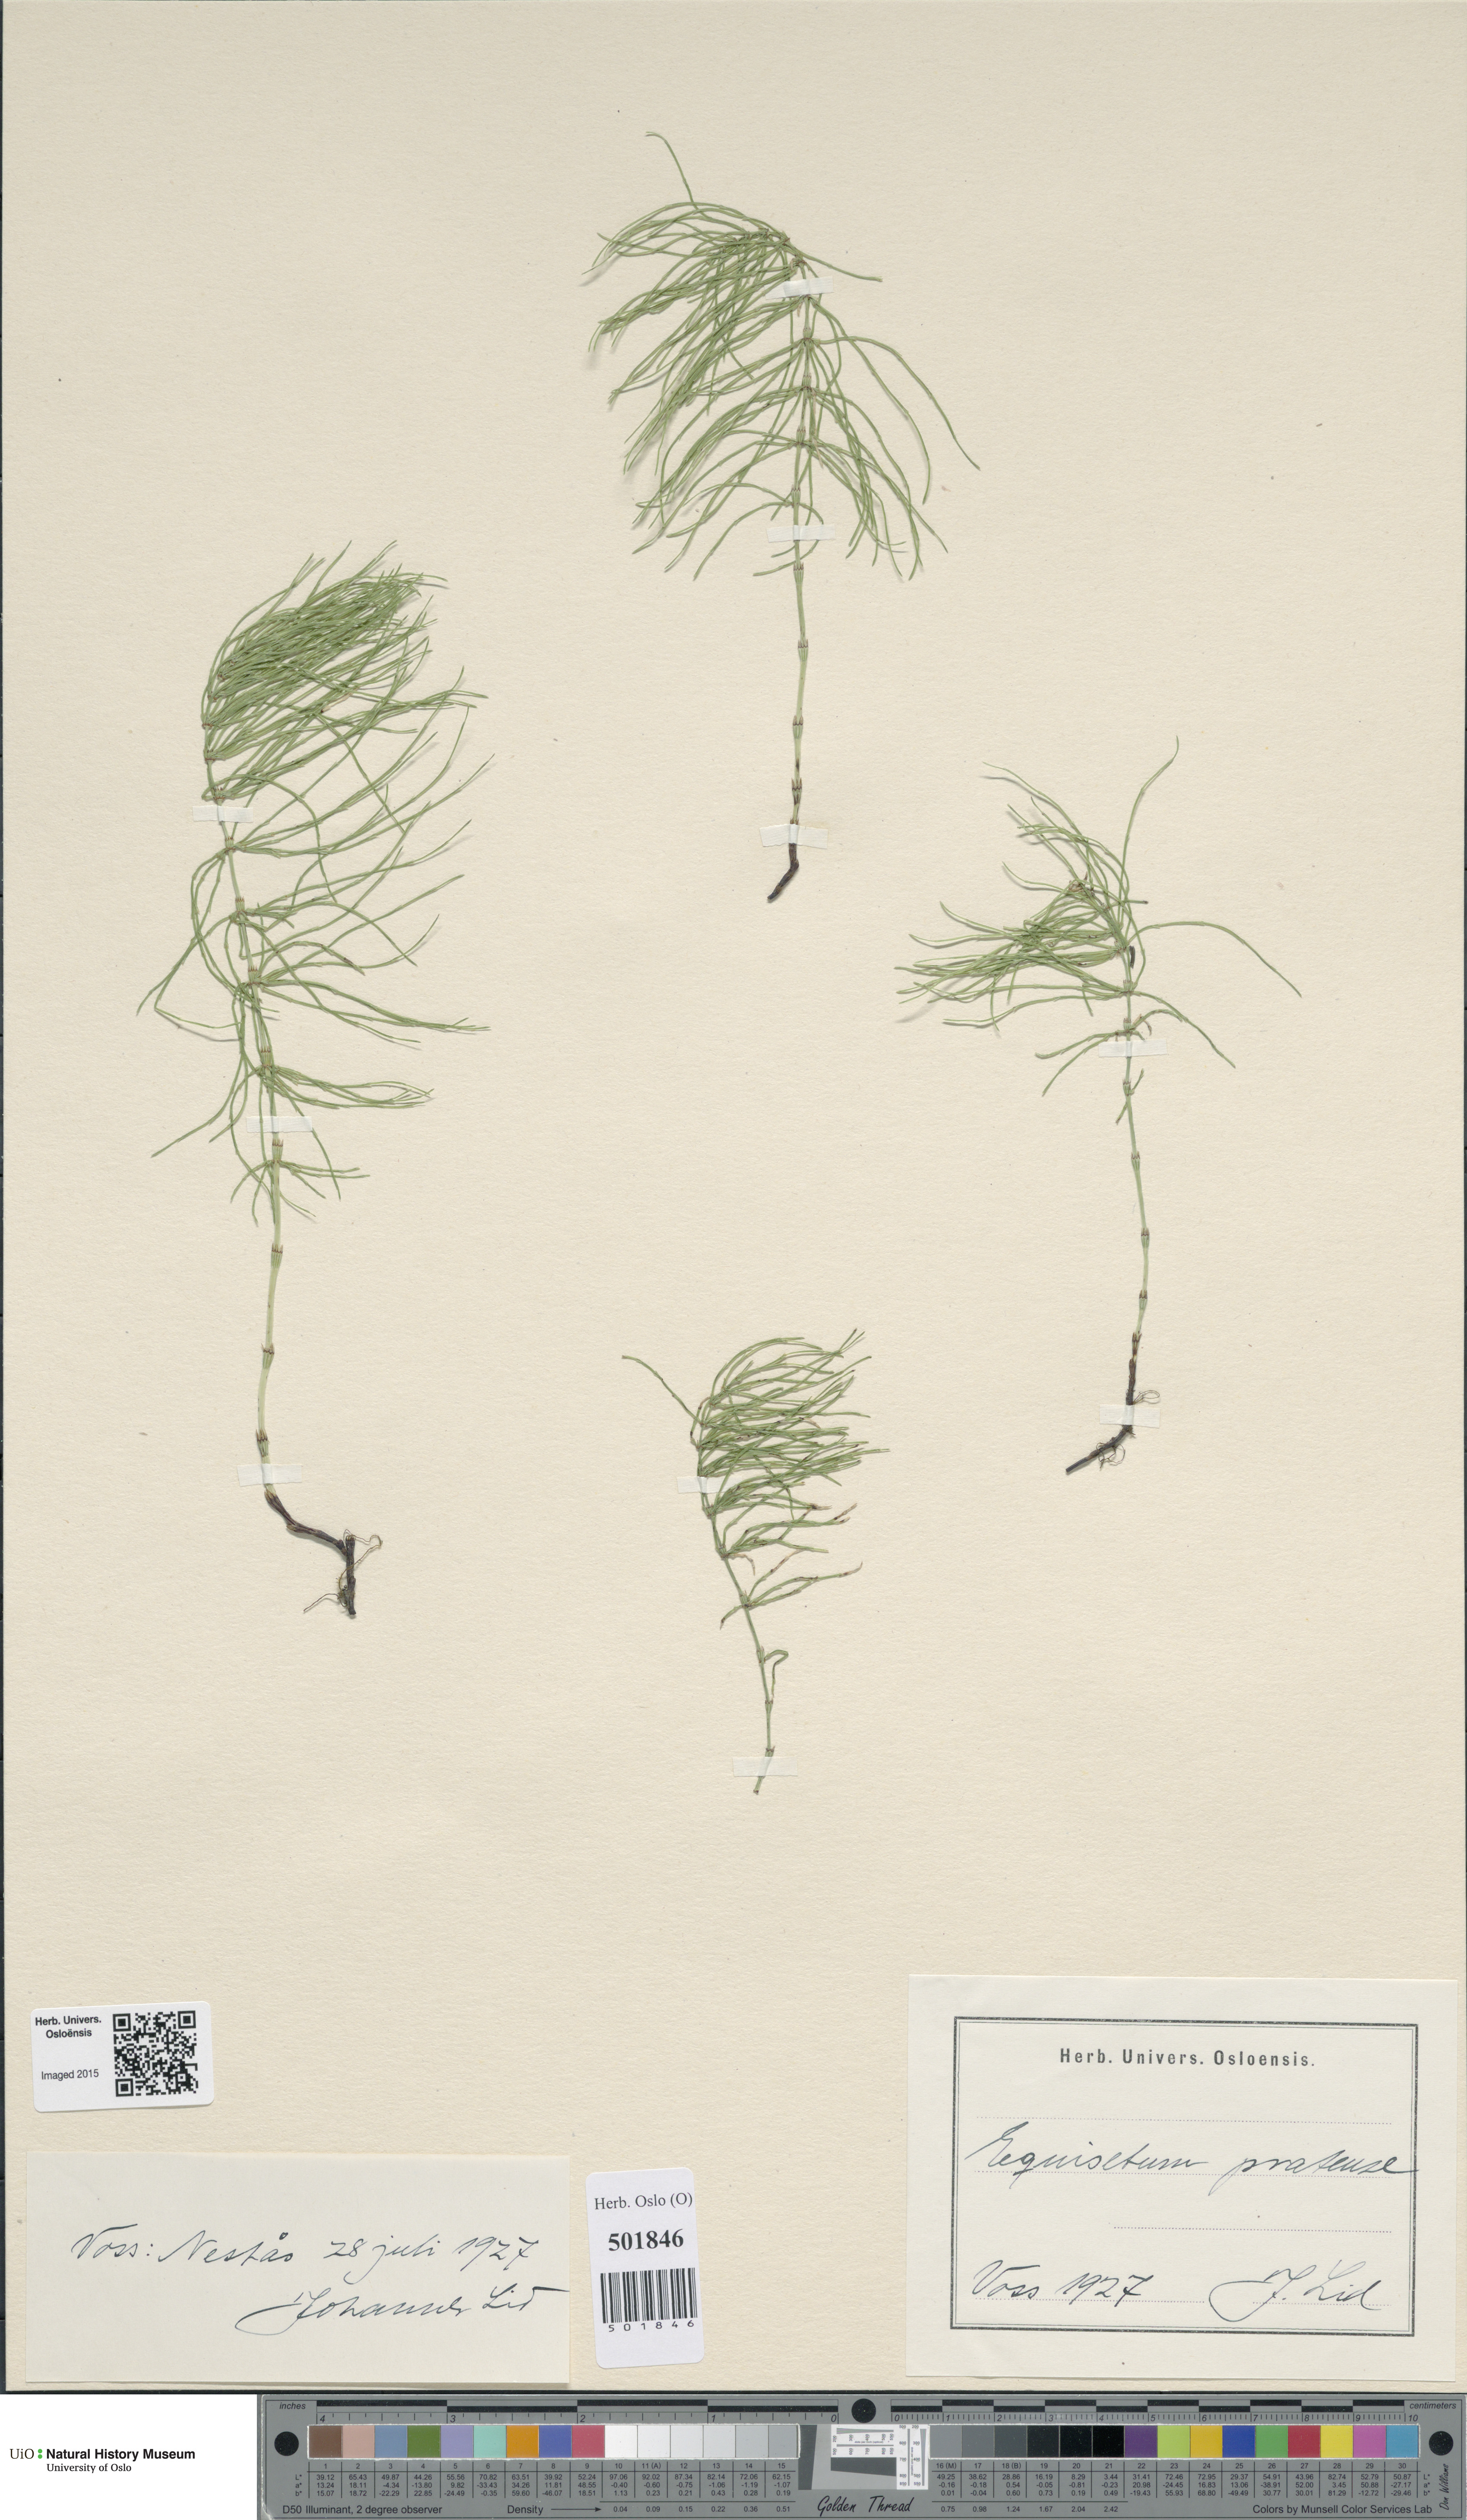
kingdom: Plantae
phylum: Tracheophyta
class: Polypodiopsida
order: Equisetales
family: Equisetaceae
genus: Equisetum
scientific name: Equisetum pratense
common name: Meadow horsetail
